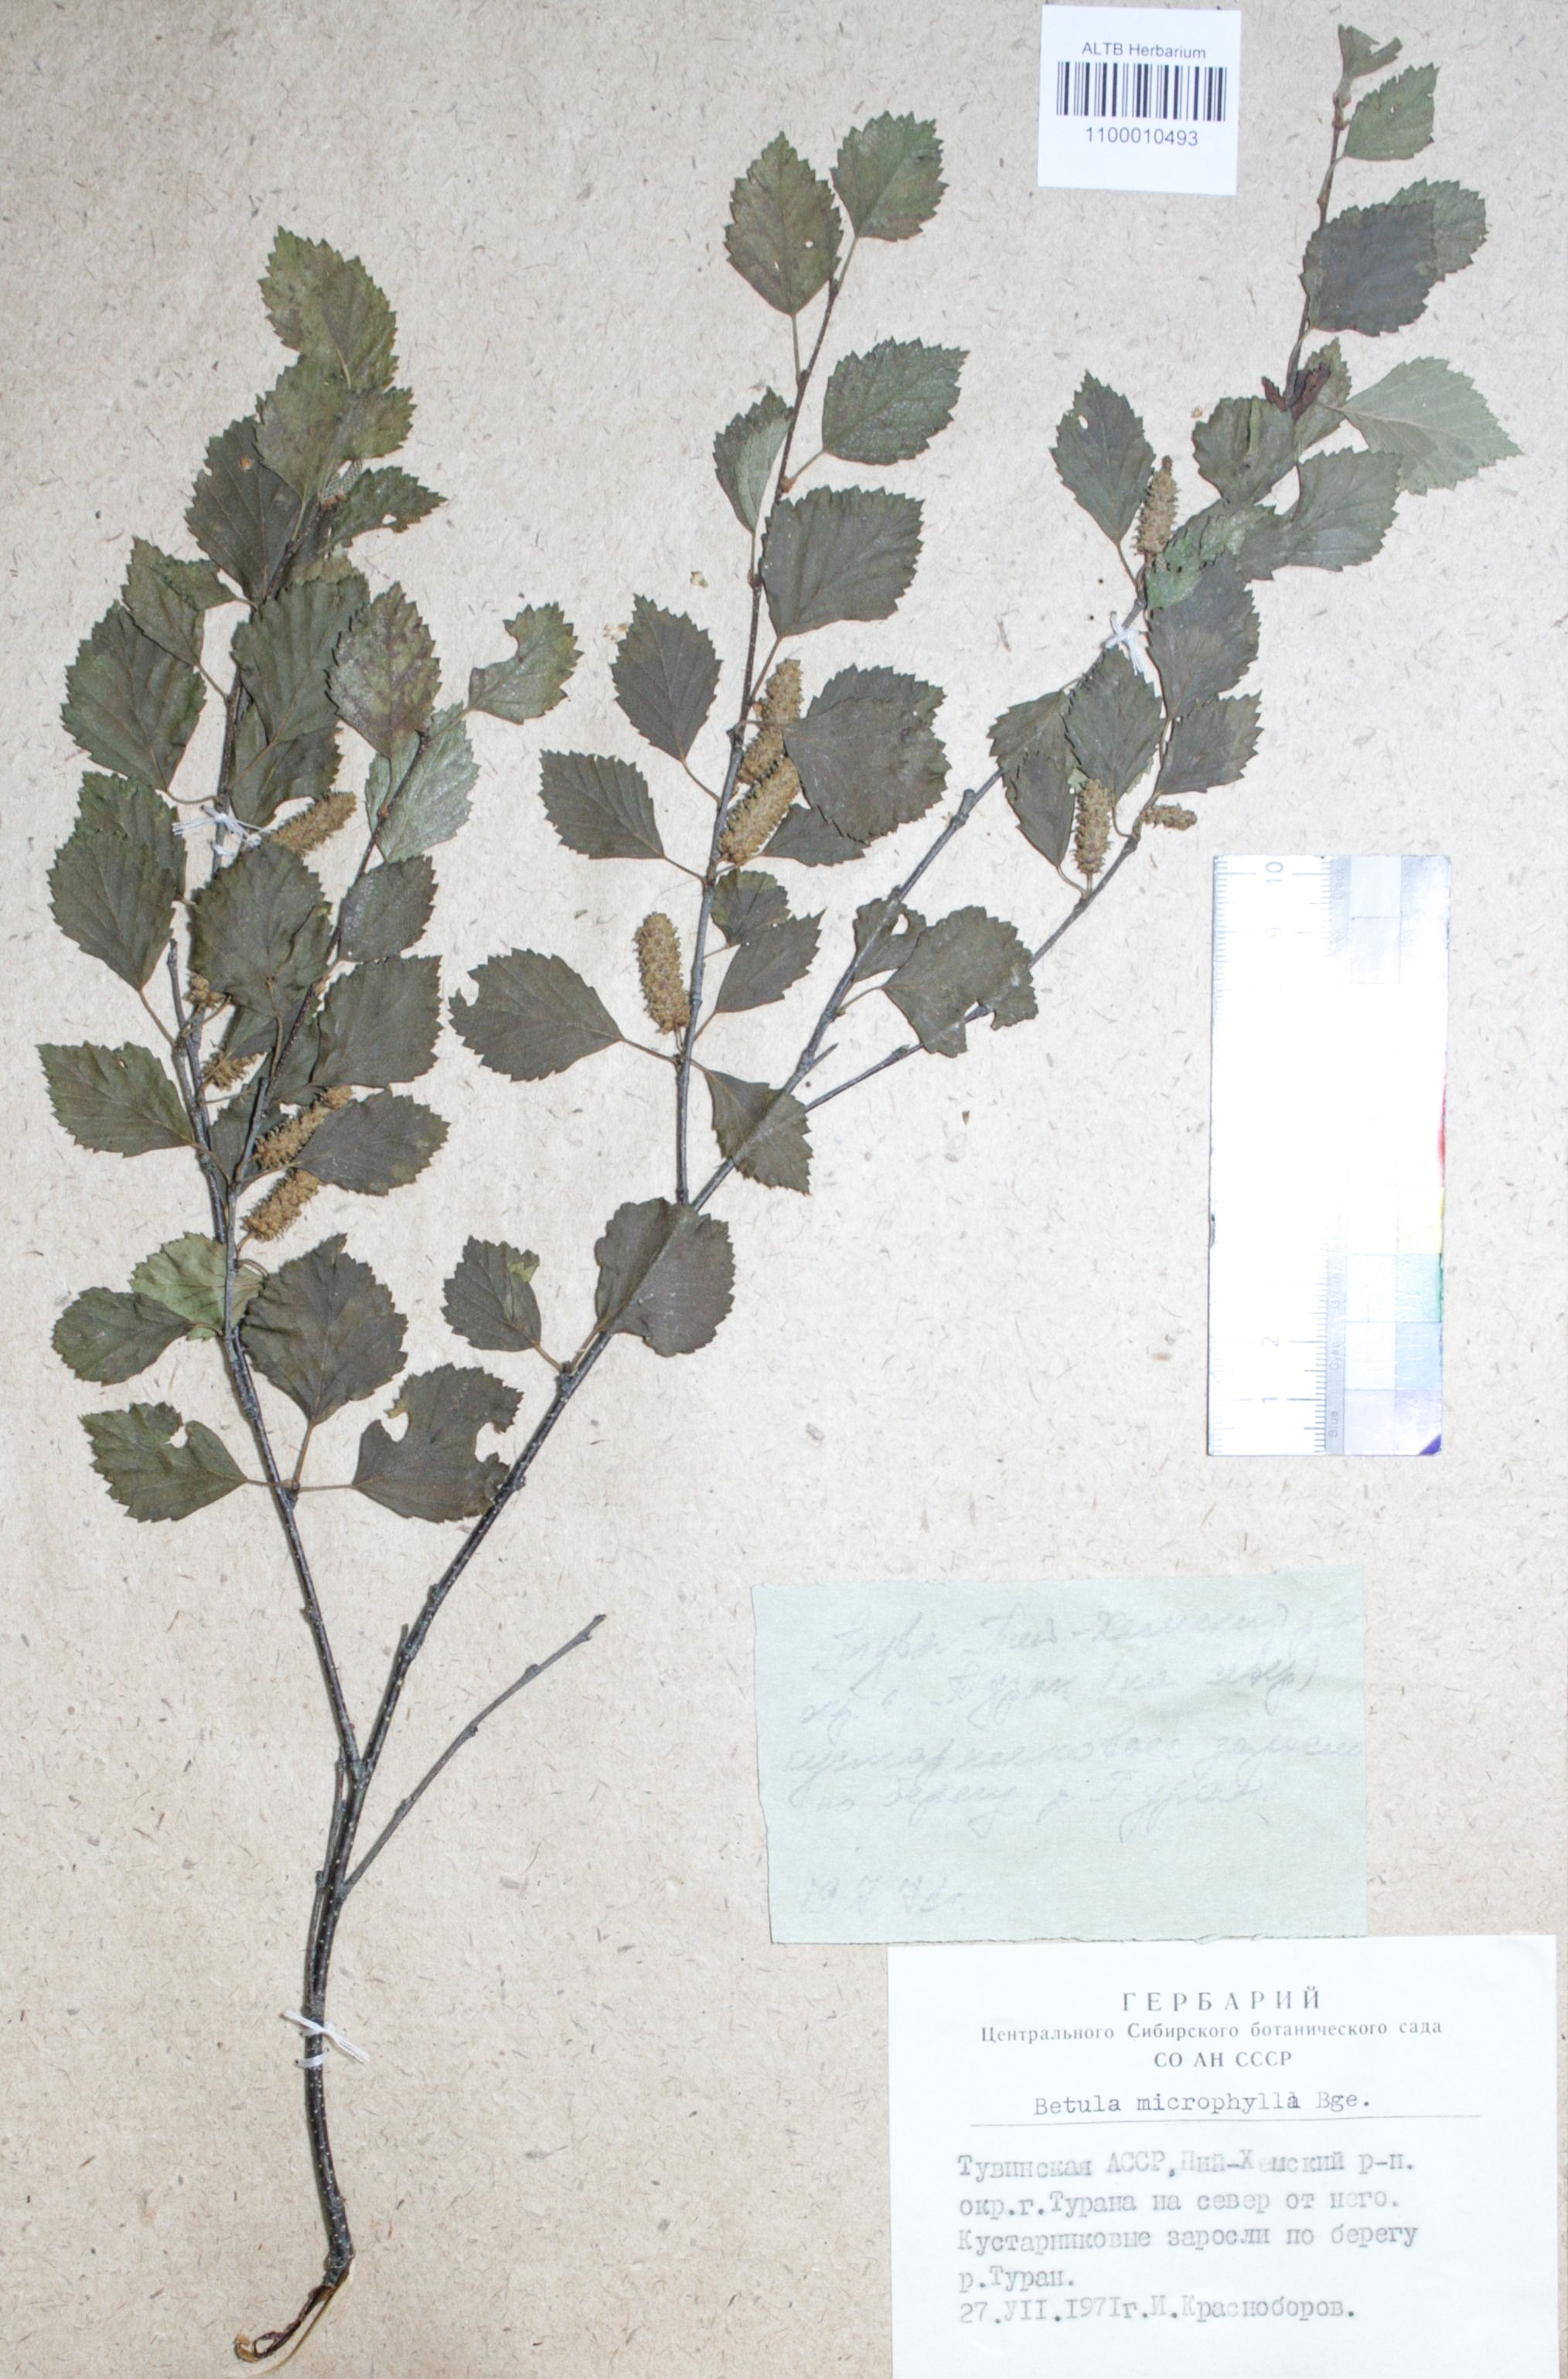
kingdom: Plantae
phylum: Tracheophyta
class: Magnoliopsida
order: Fagales
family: Betulaceae
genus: Betula
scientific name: Betula microphylla
